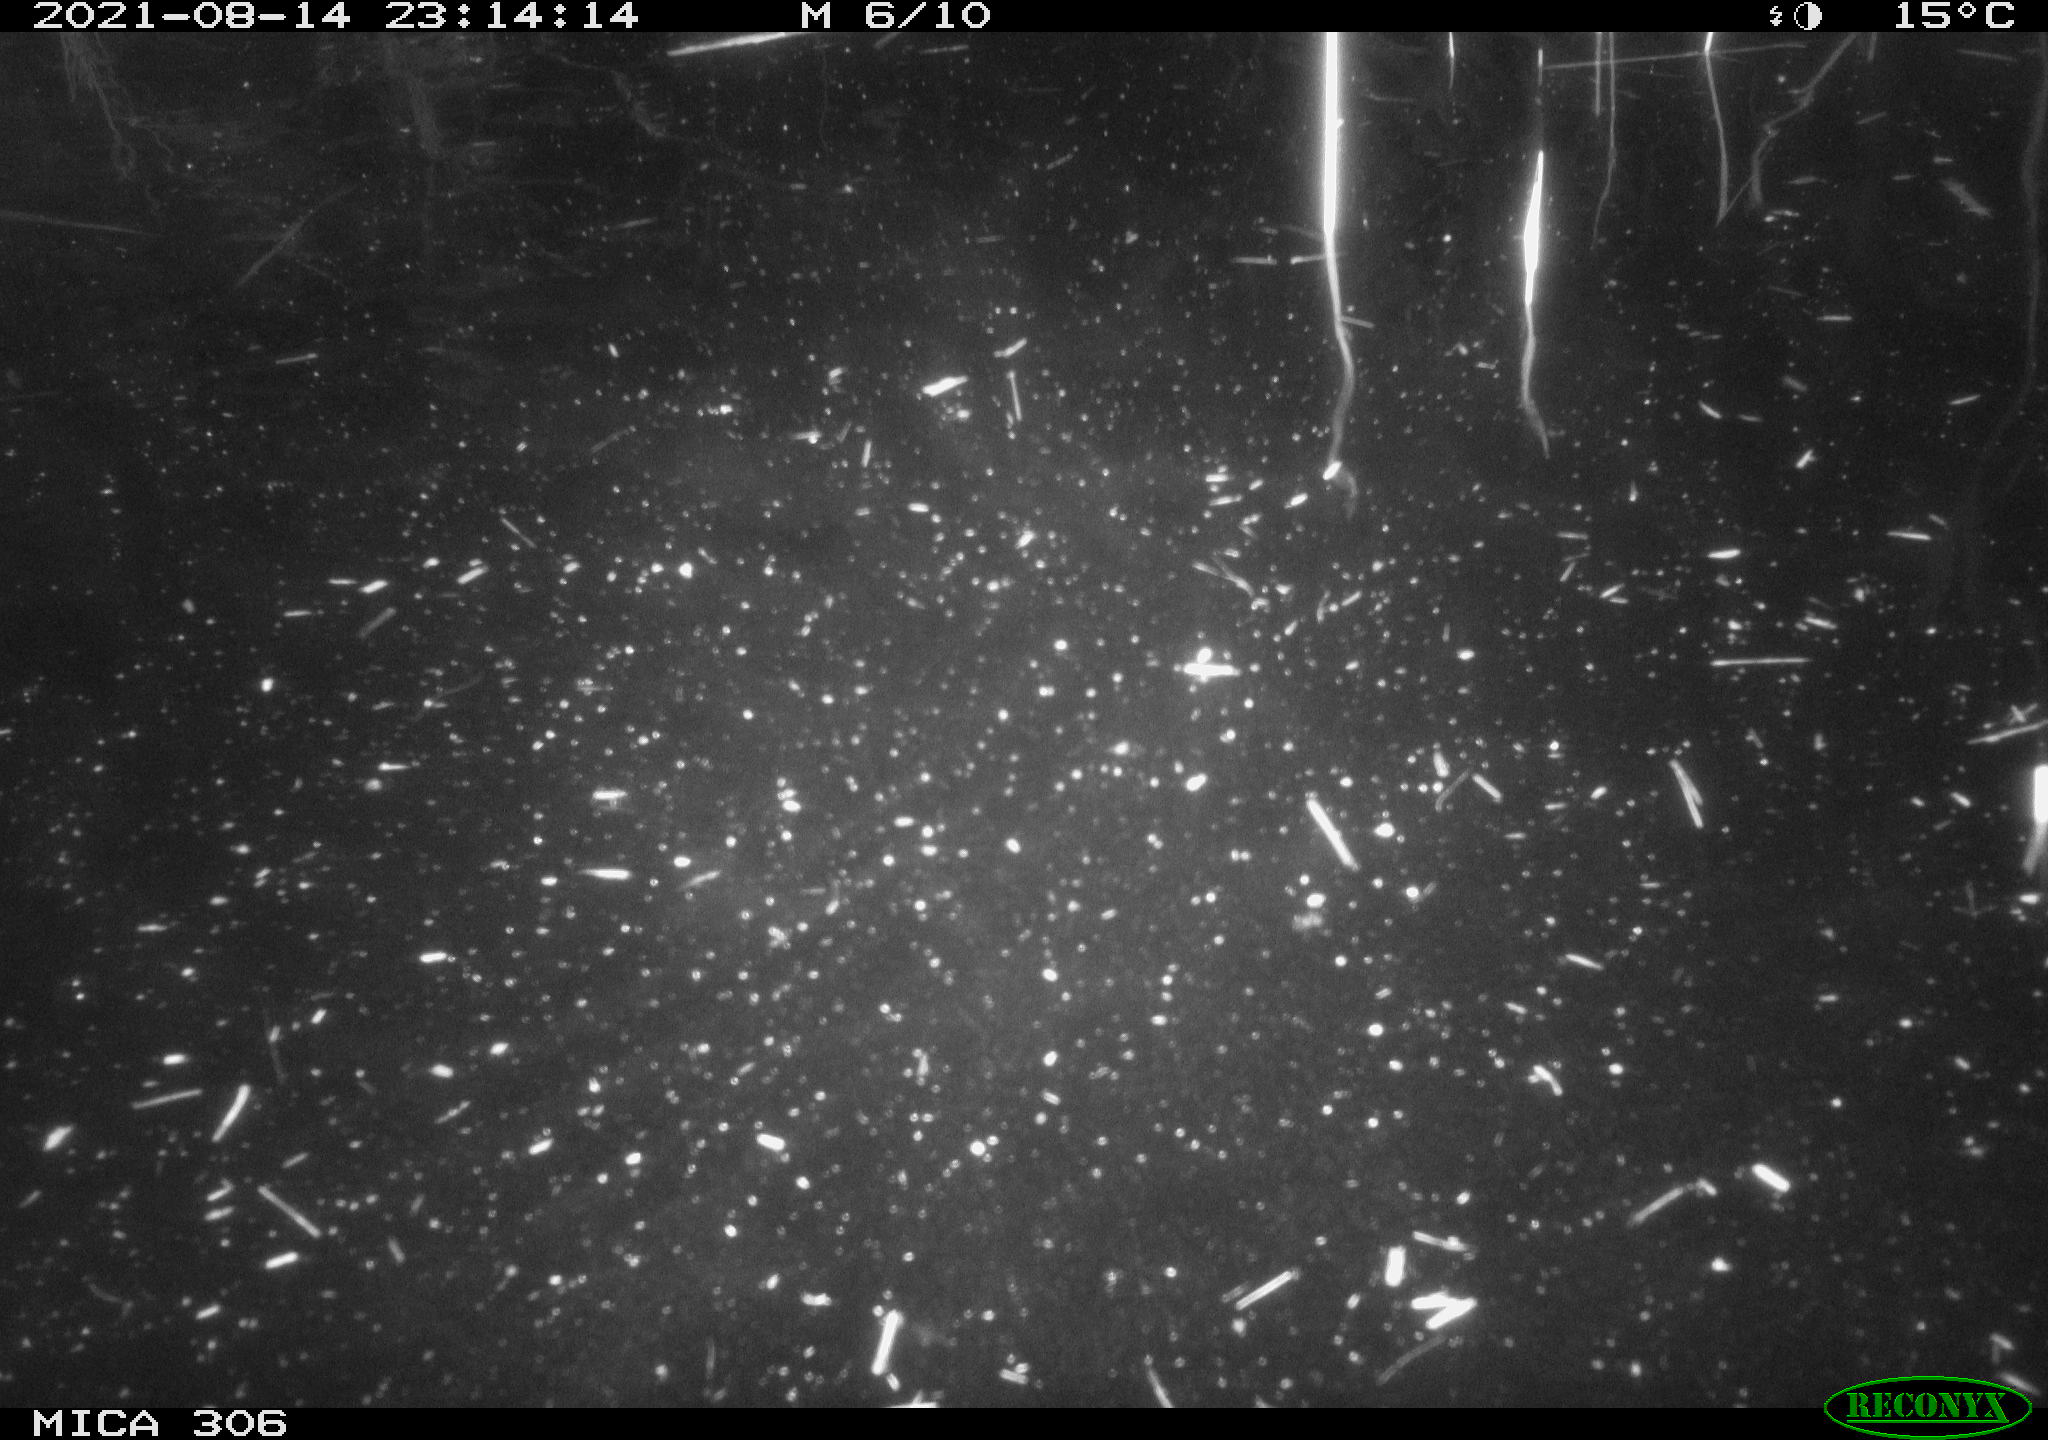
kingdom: Animalia
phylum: Chordata
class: Aves
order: Anseriformes
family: Anatidae
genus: Anas
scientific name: Anas platyrhynchos
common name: Mallard
